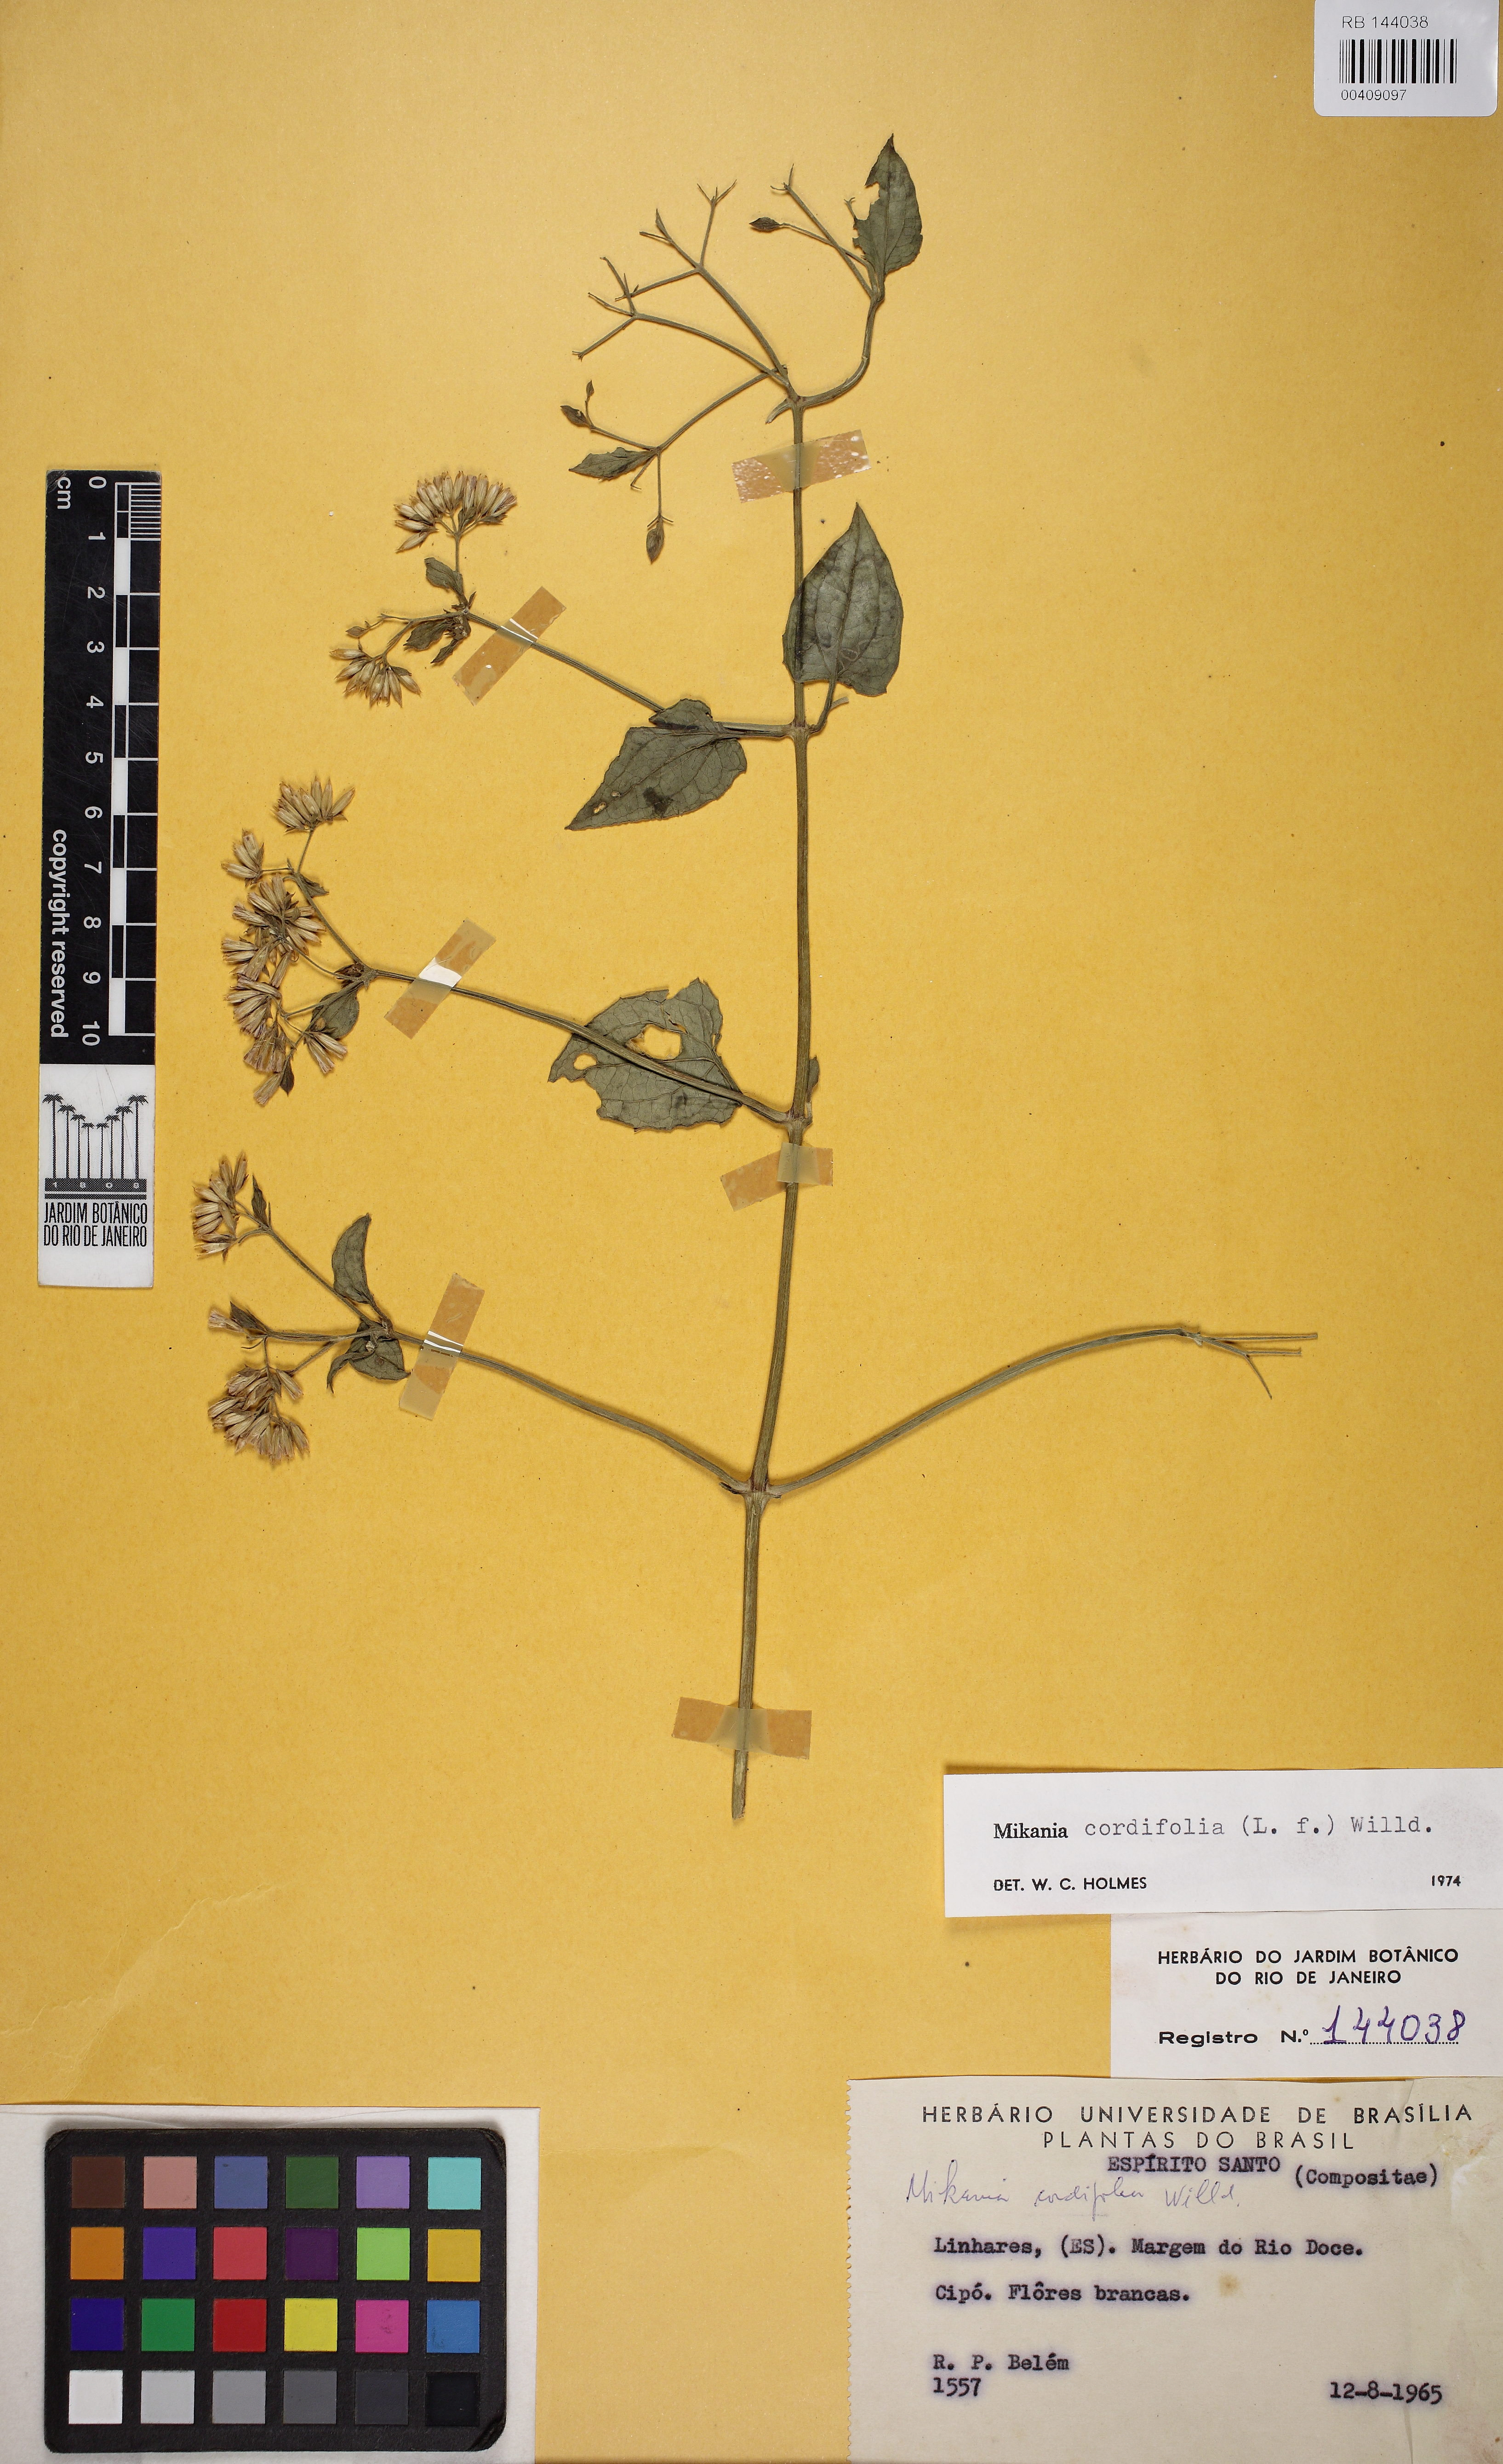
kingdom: Plantae
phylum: Tracheophyta
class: Magnoliopsida
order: Asterales
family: Asteraceae
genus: Mikania
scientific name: Mikania cordifolia
